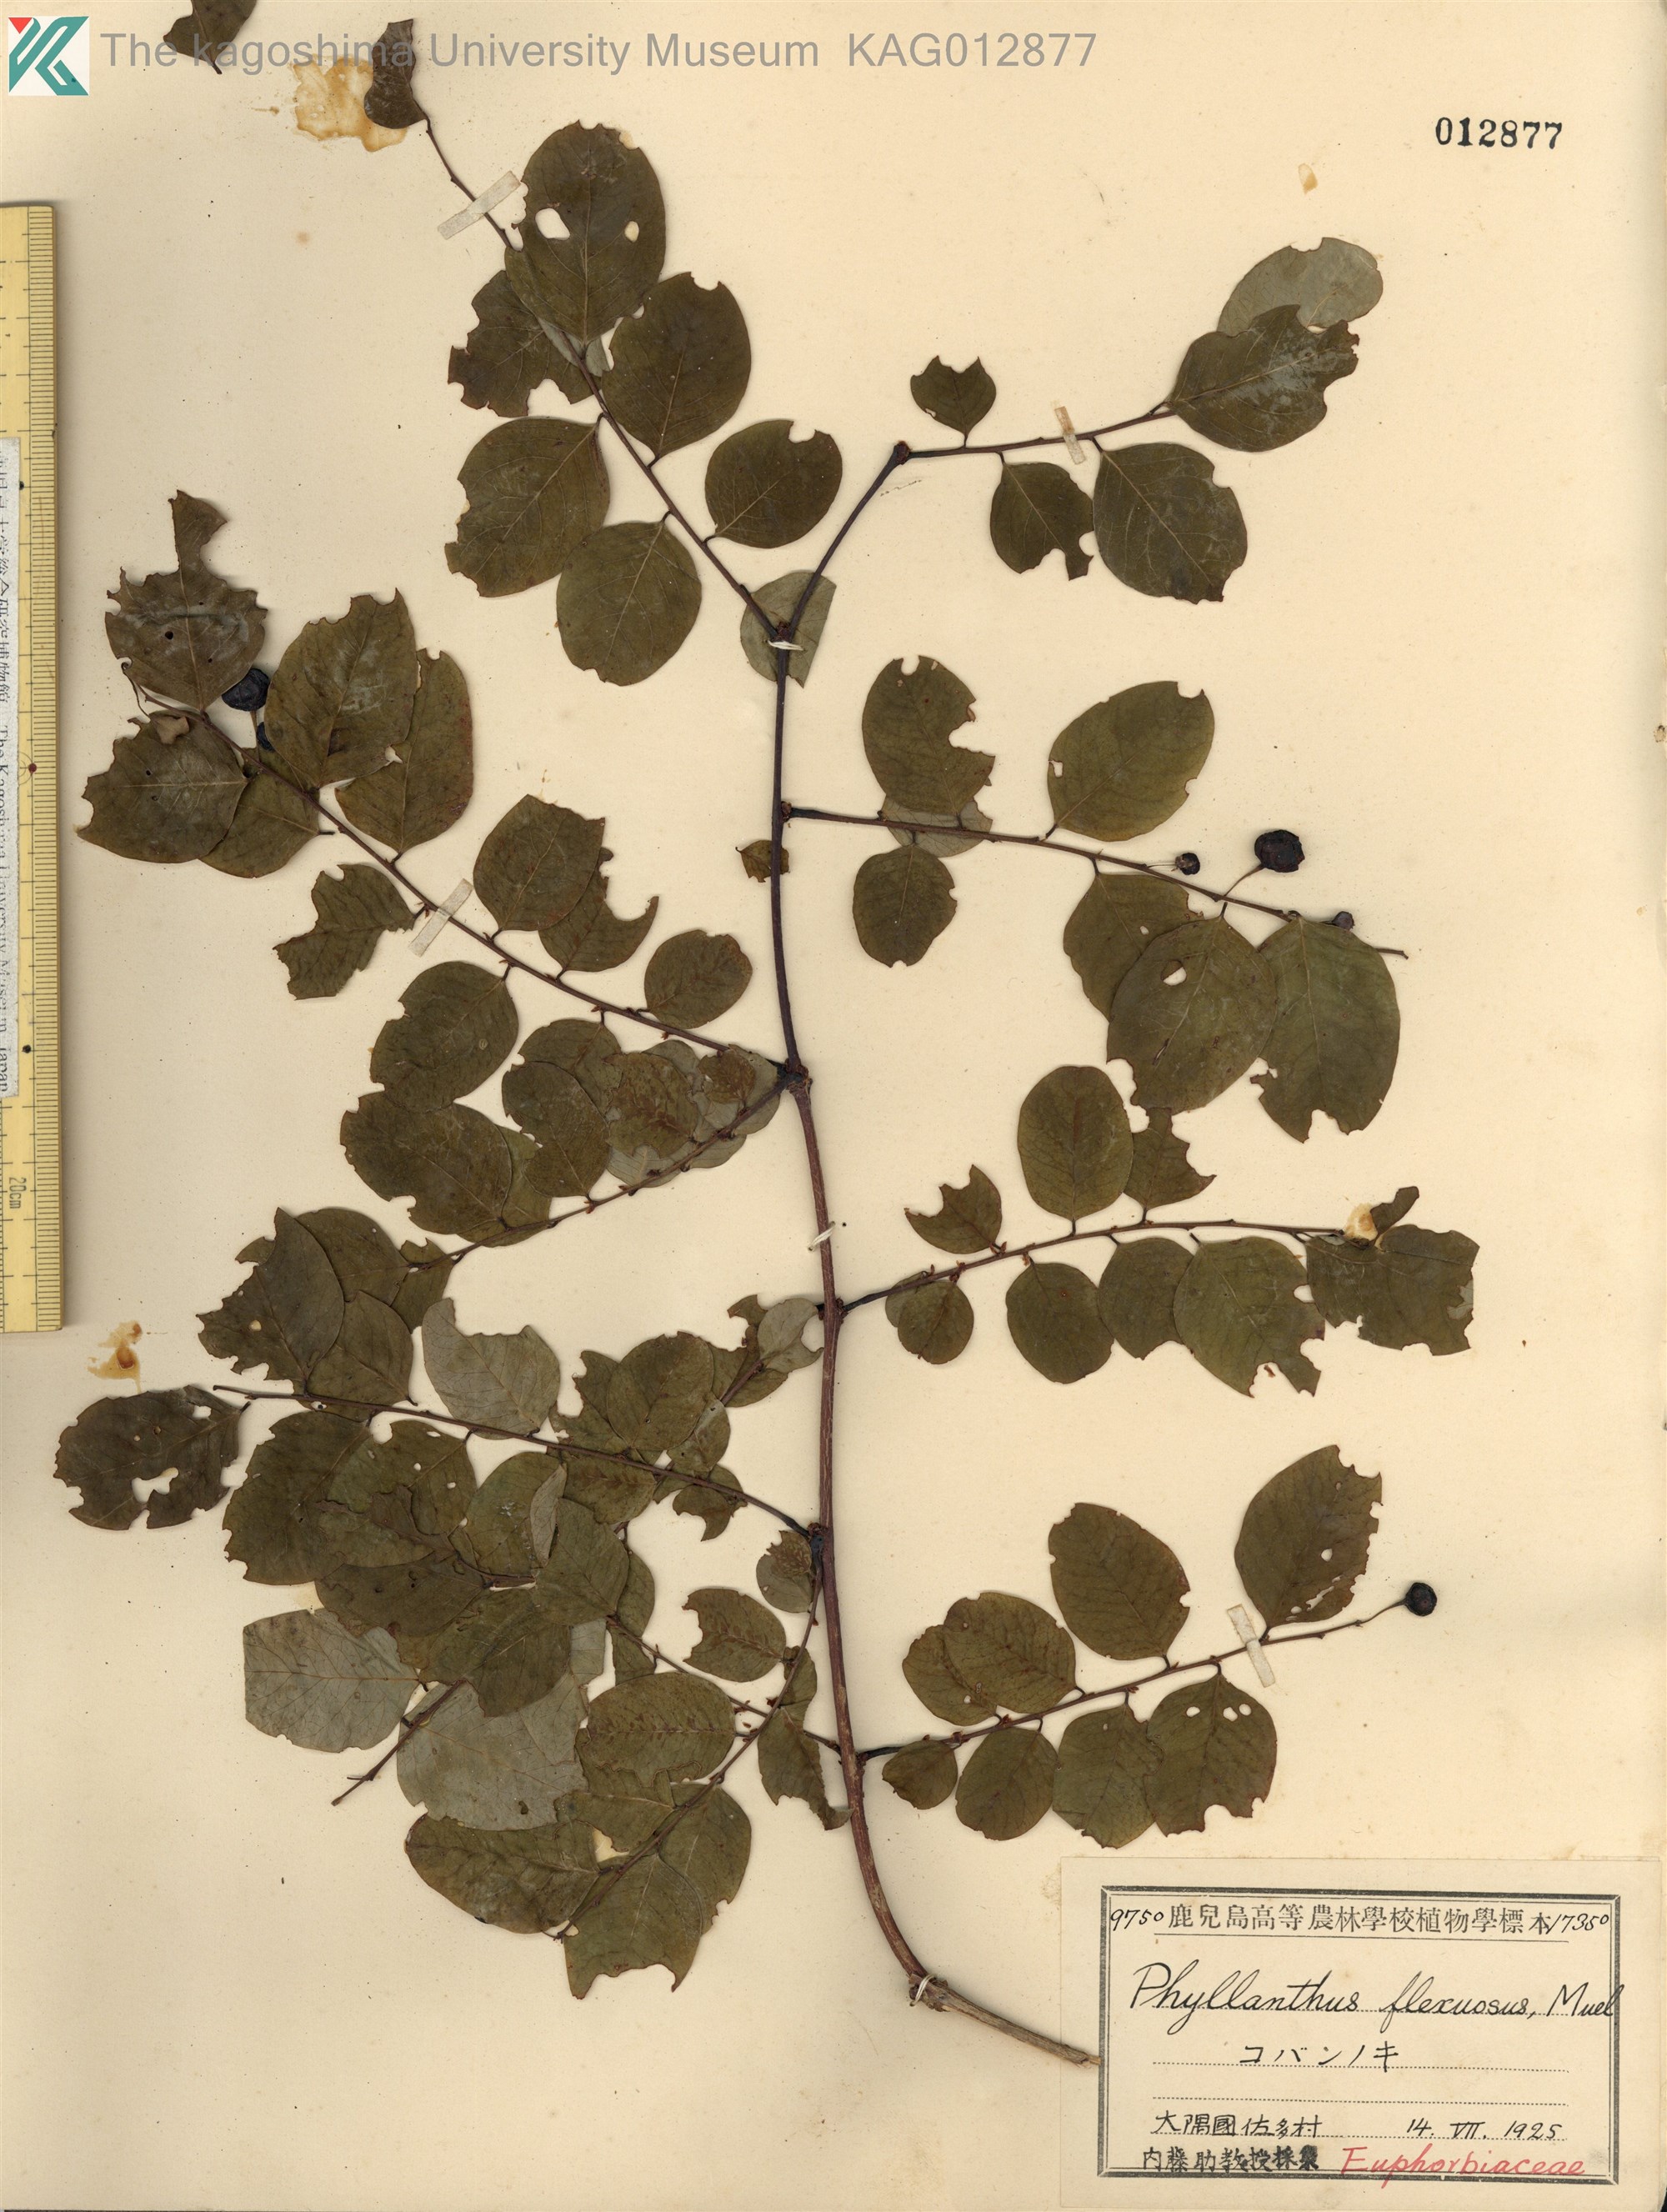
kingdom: Plantae
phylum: Tracheophyta
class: Magnoliopsida
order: Malpighiales
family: Phyllanthaceae
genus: Phyllanthus
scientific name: Phyllanthus flexuosus
